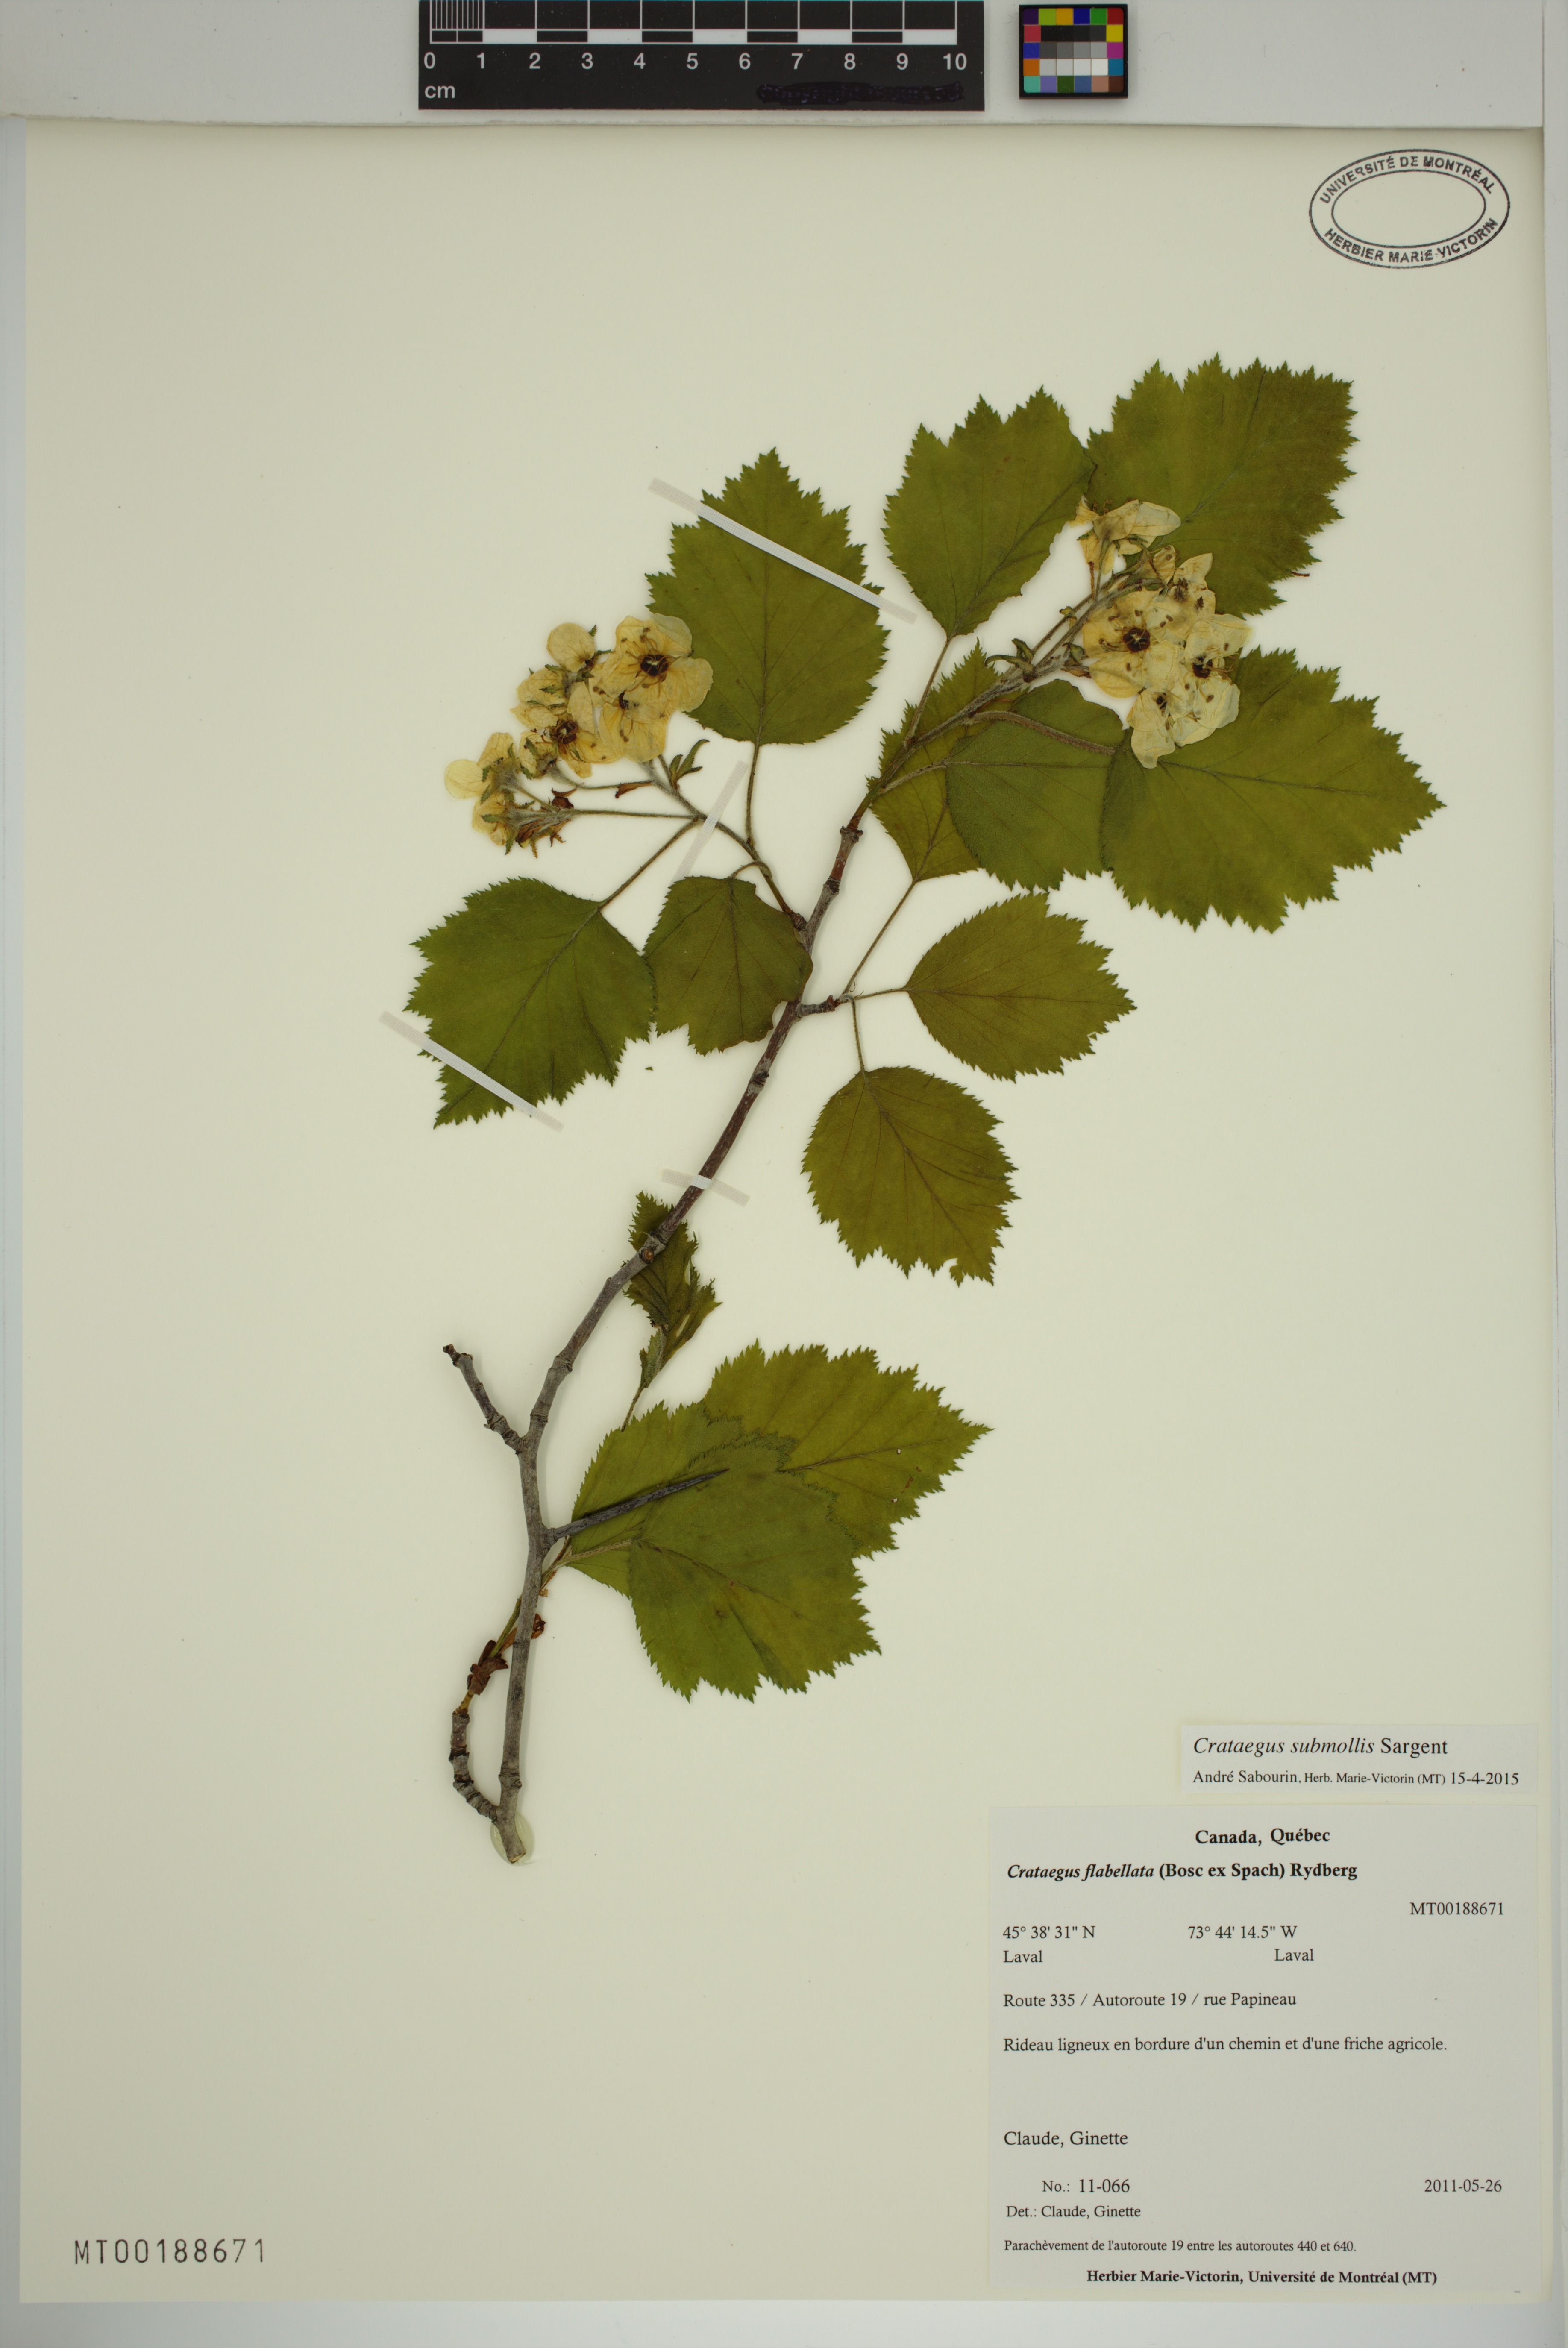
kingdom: Plantae
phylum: Tracheophyta
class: Magnoliopsida
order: Rosales
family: Rosaceae
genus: Crataegus
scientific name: Crataegus submollis
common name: Hairy cockspurthorn
